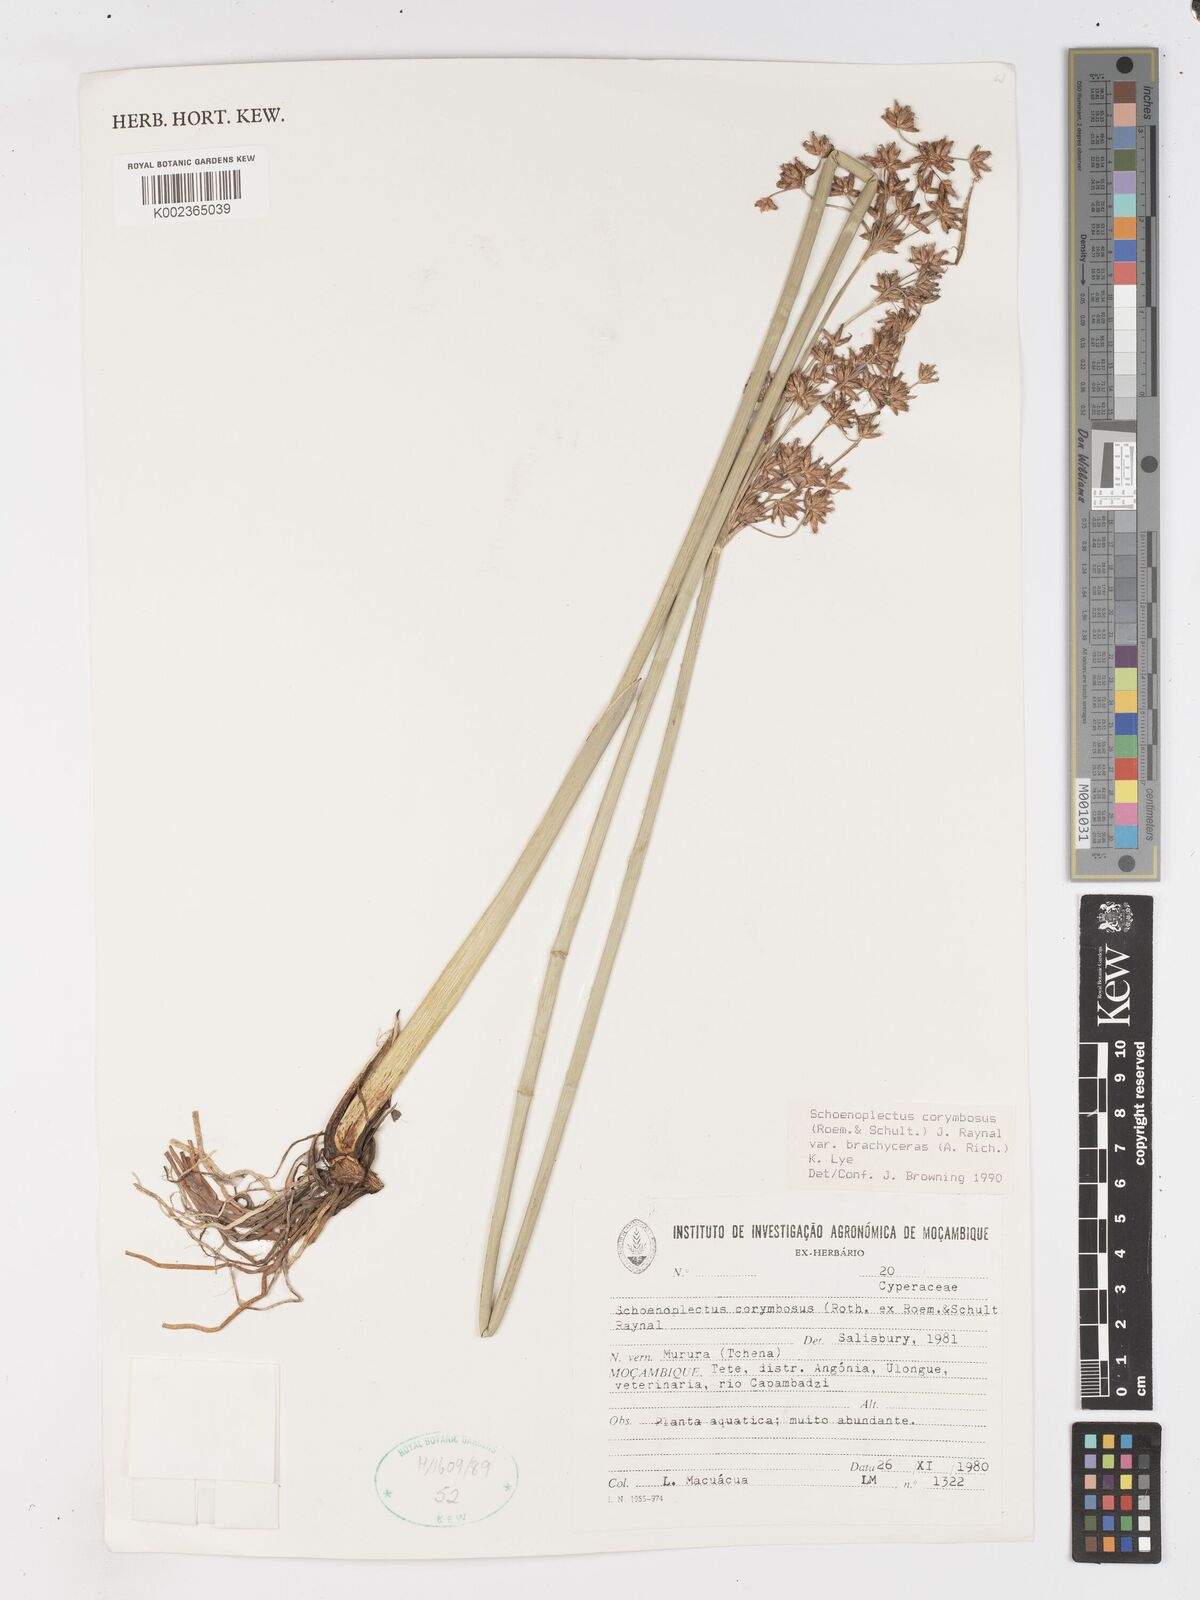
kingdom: Plantae
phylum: Tracheophyta
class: Liliopsida
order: Poales
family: Cyperaceae
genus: Schoenoplectiella
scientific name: Schoenoplectiella brachyceras
